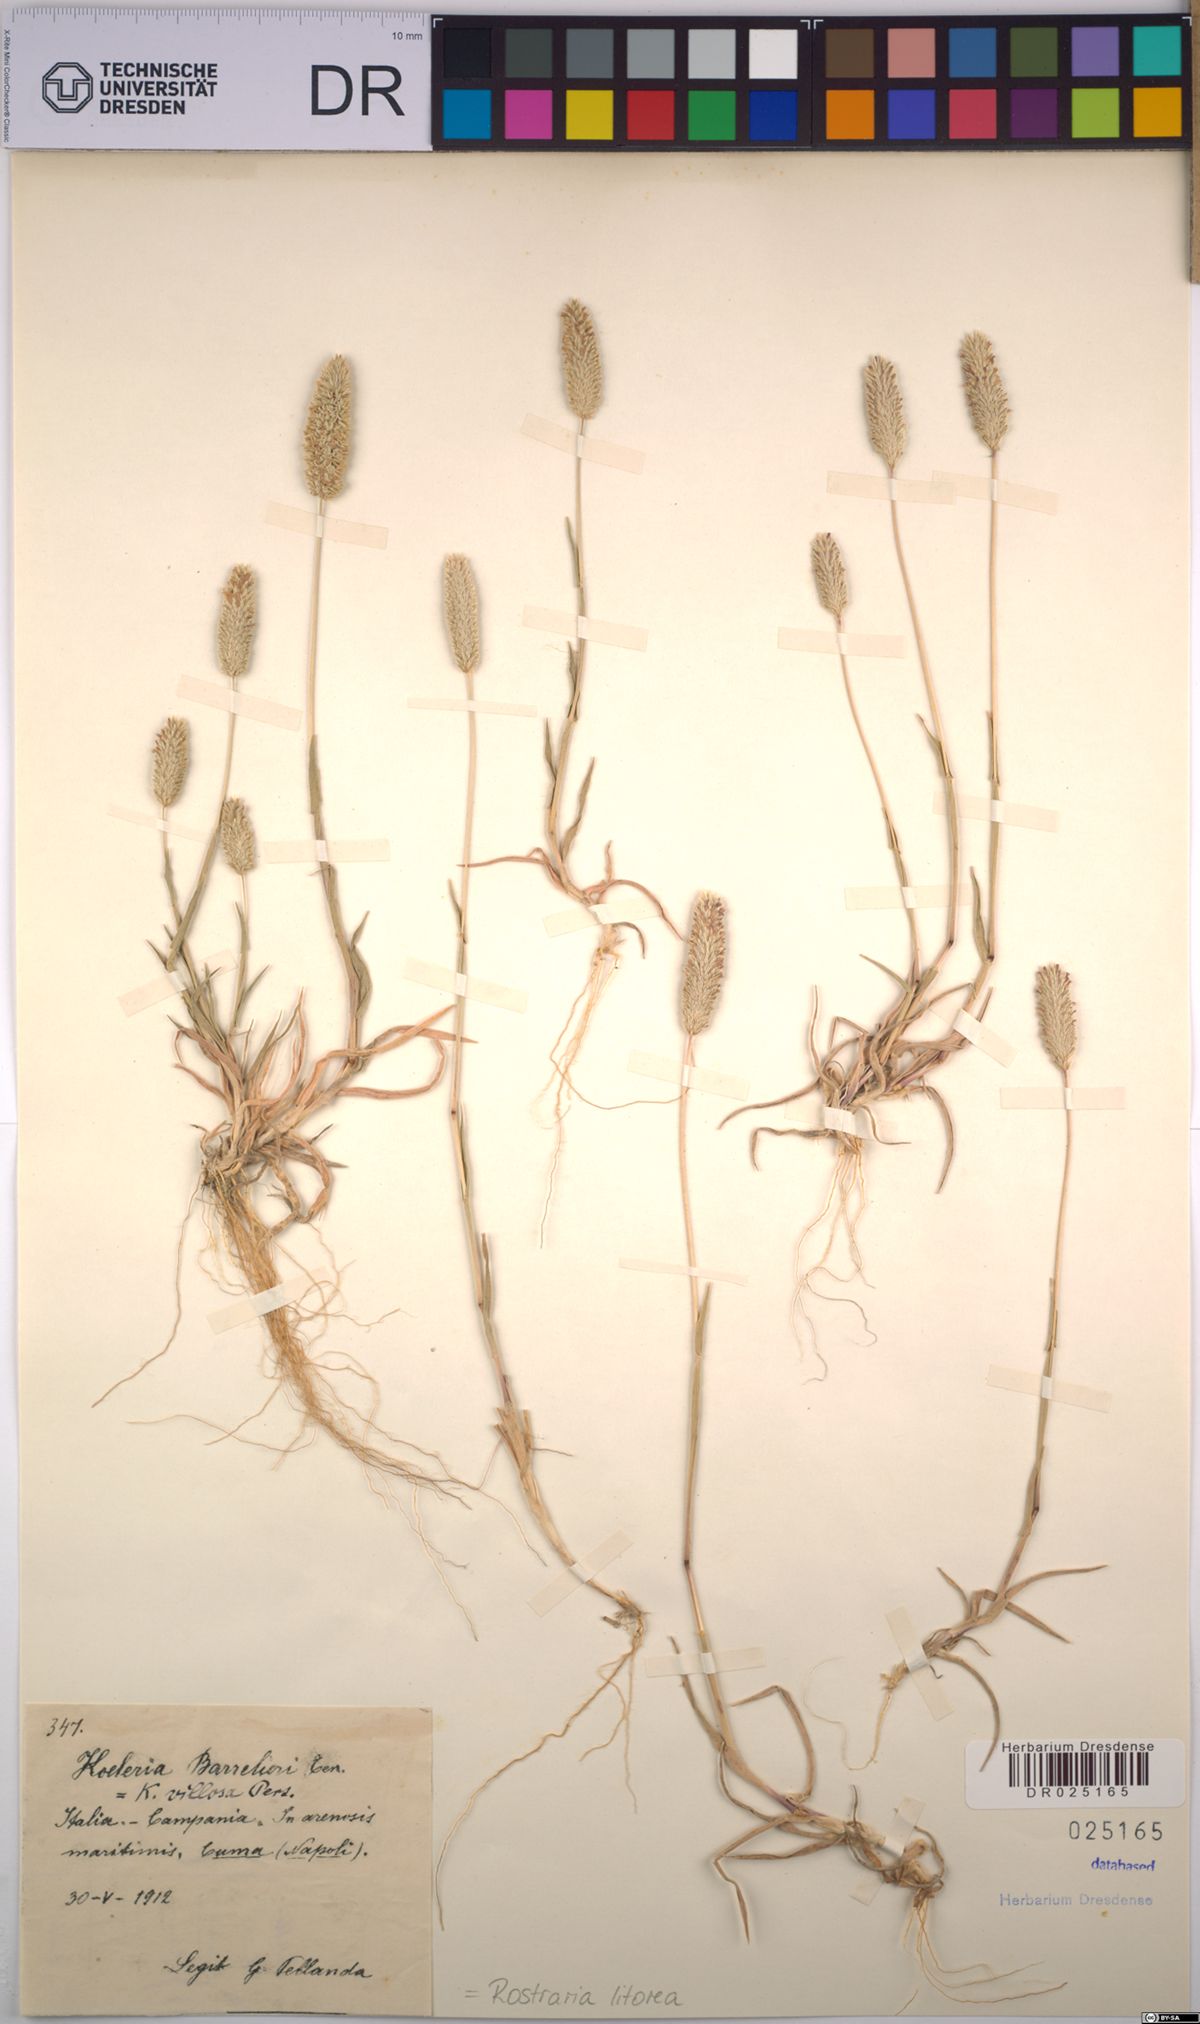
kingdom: Plantae
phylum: Tracheophyta
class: Liliopsida
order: Poales
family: Poaceae
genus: Rostraria
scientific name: Rostraria litorea
